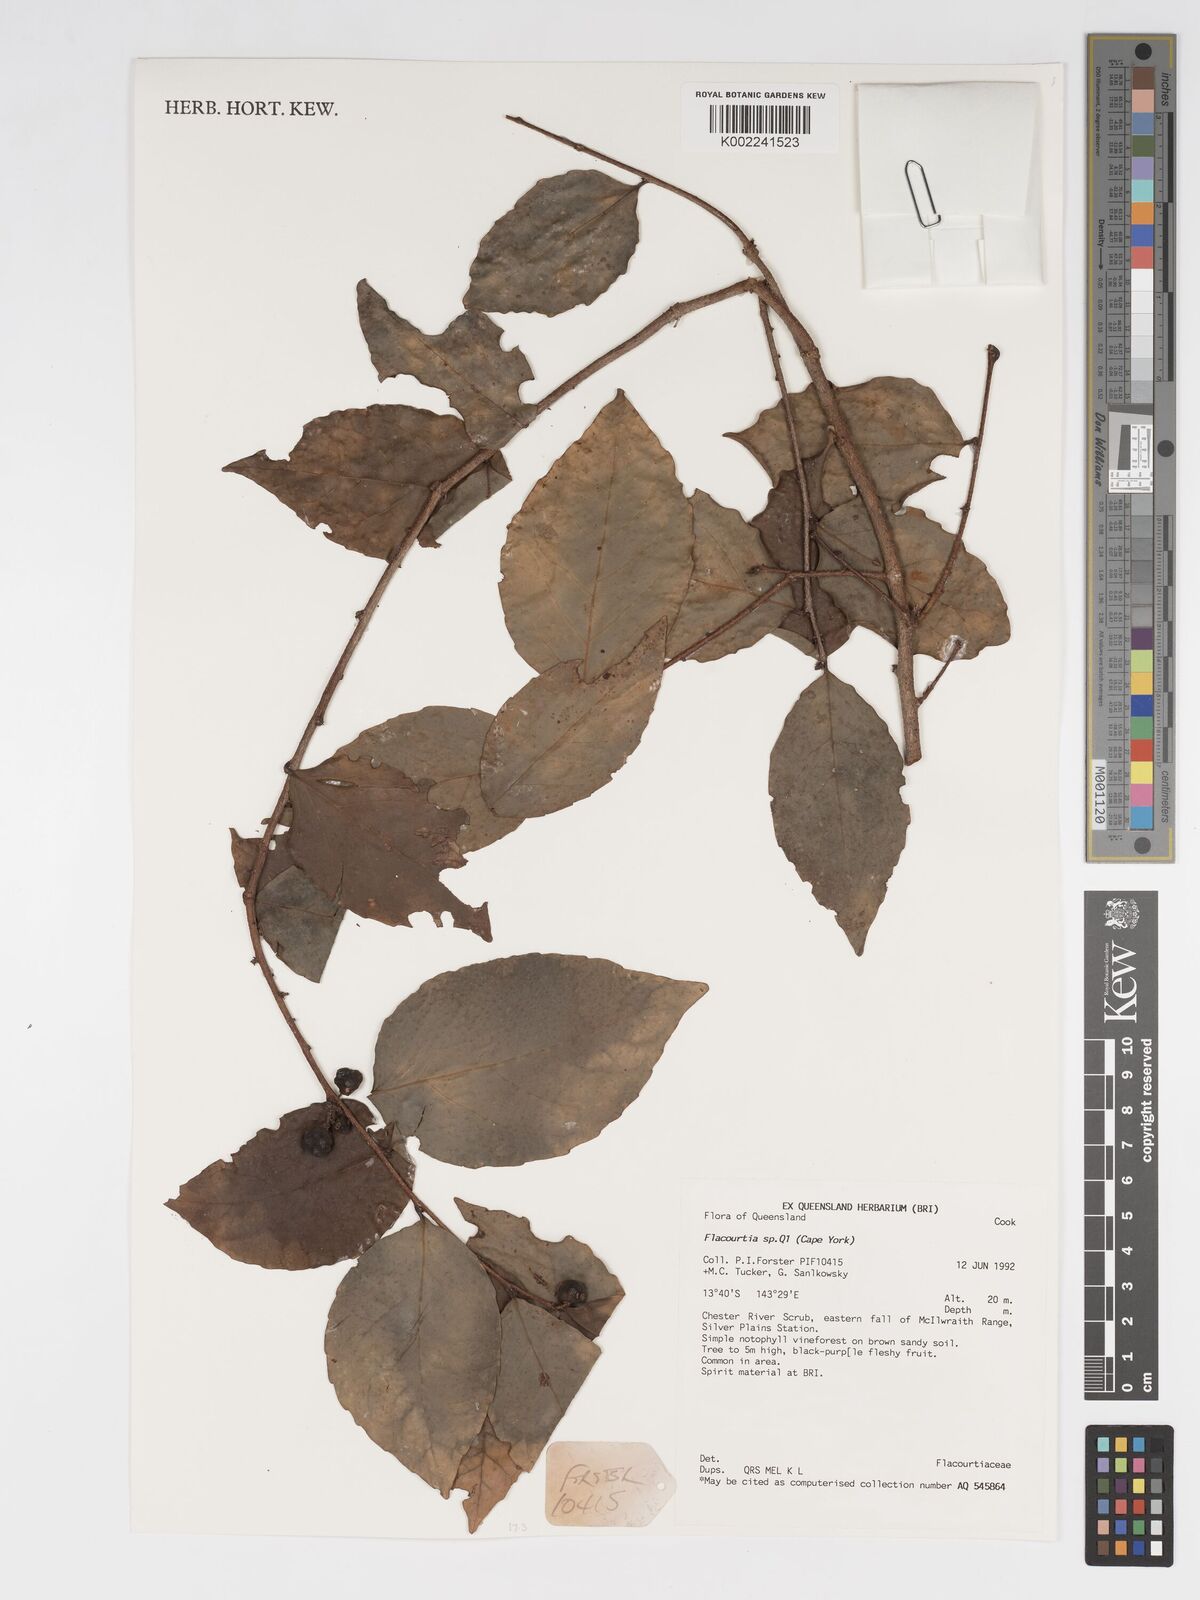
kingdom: Plantae
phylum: Tracheophyta
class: Magnoliopsida
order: Malpighiales
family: Salicaceae
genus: Flacourtia
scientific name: Flacourtia
